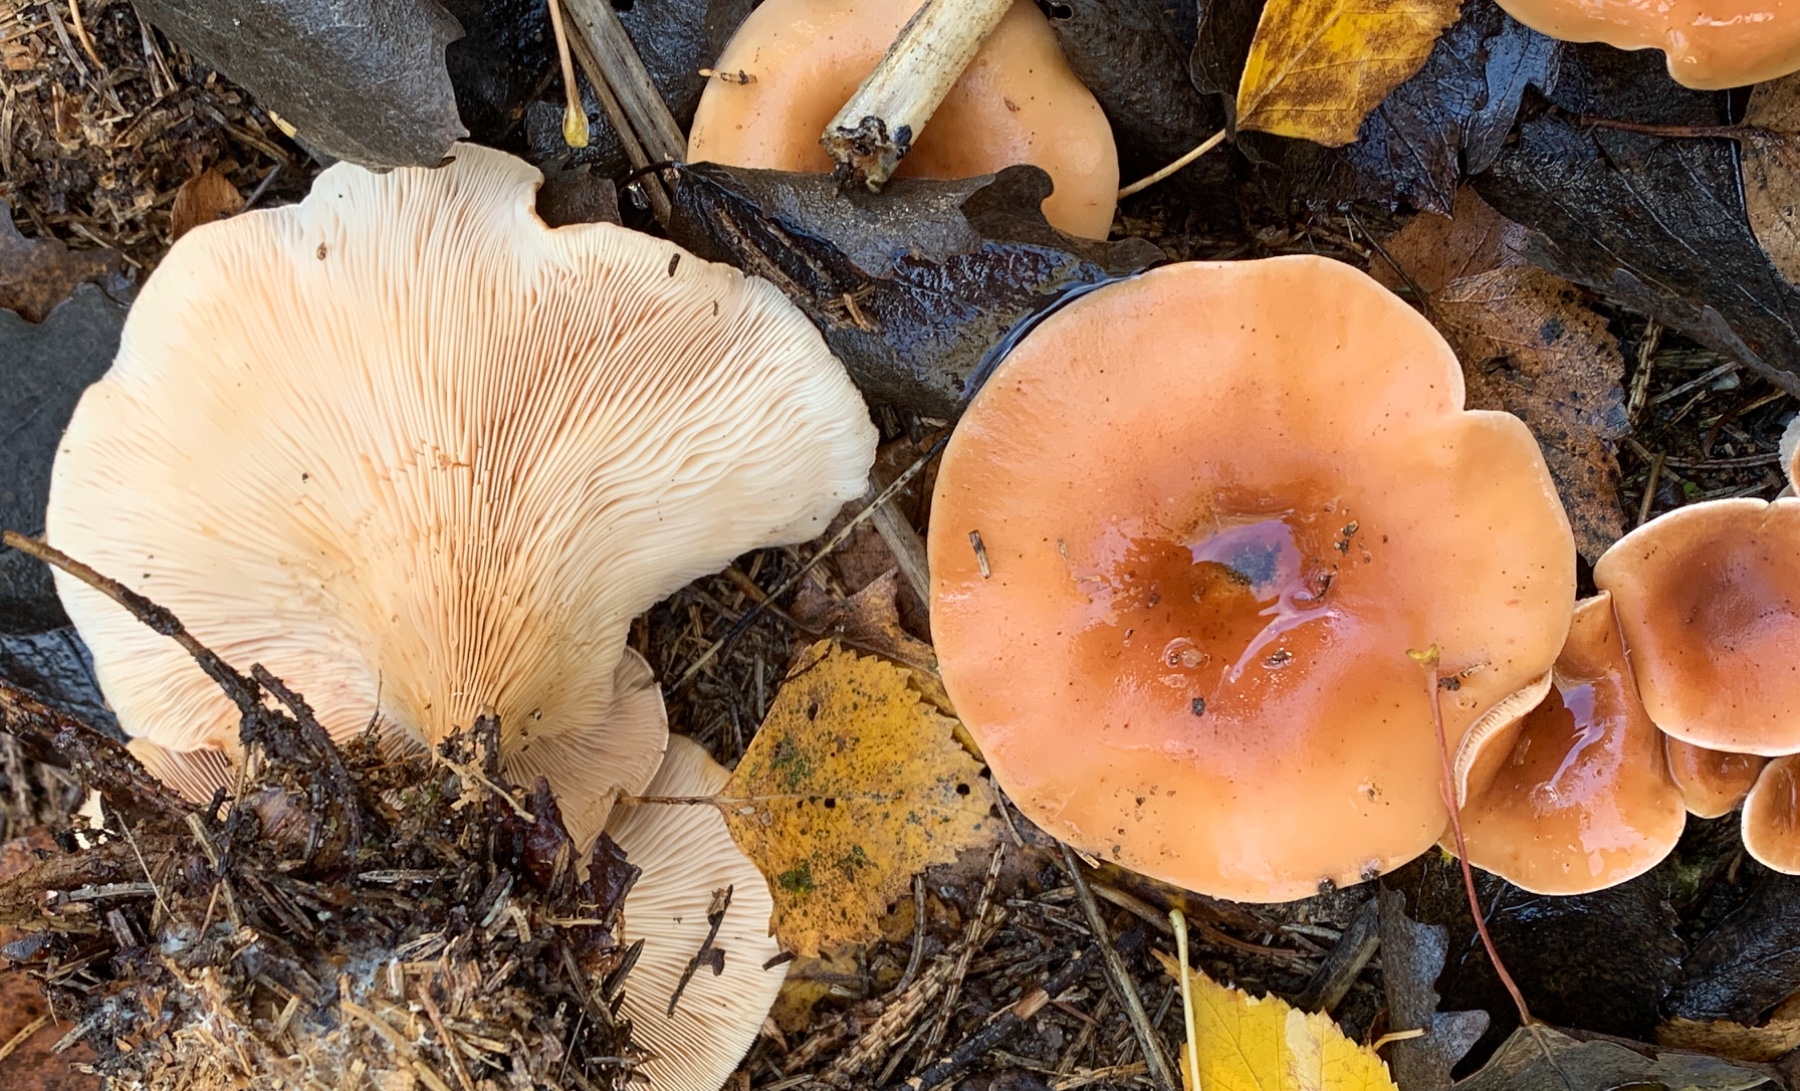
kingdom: Fungi
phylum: Basidiomycota
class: Agaricomycetes
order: Agaricales
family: Tricholomataceae
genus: Paralepista
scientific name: Paralepista flaccida
